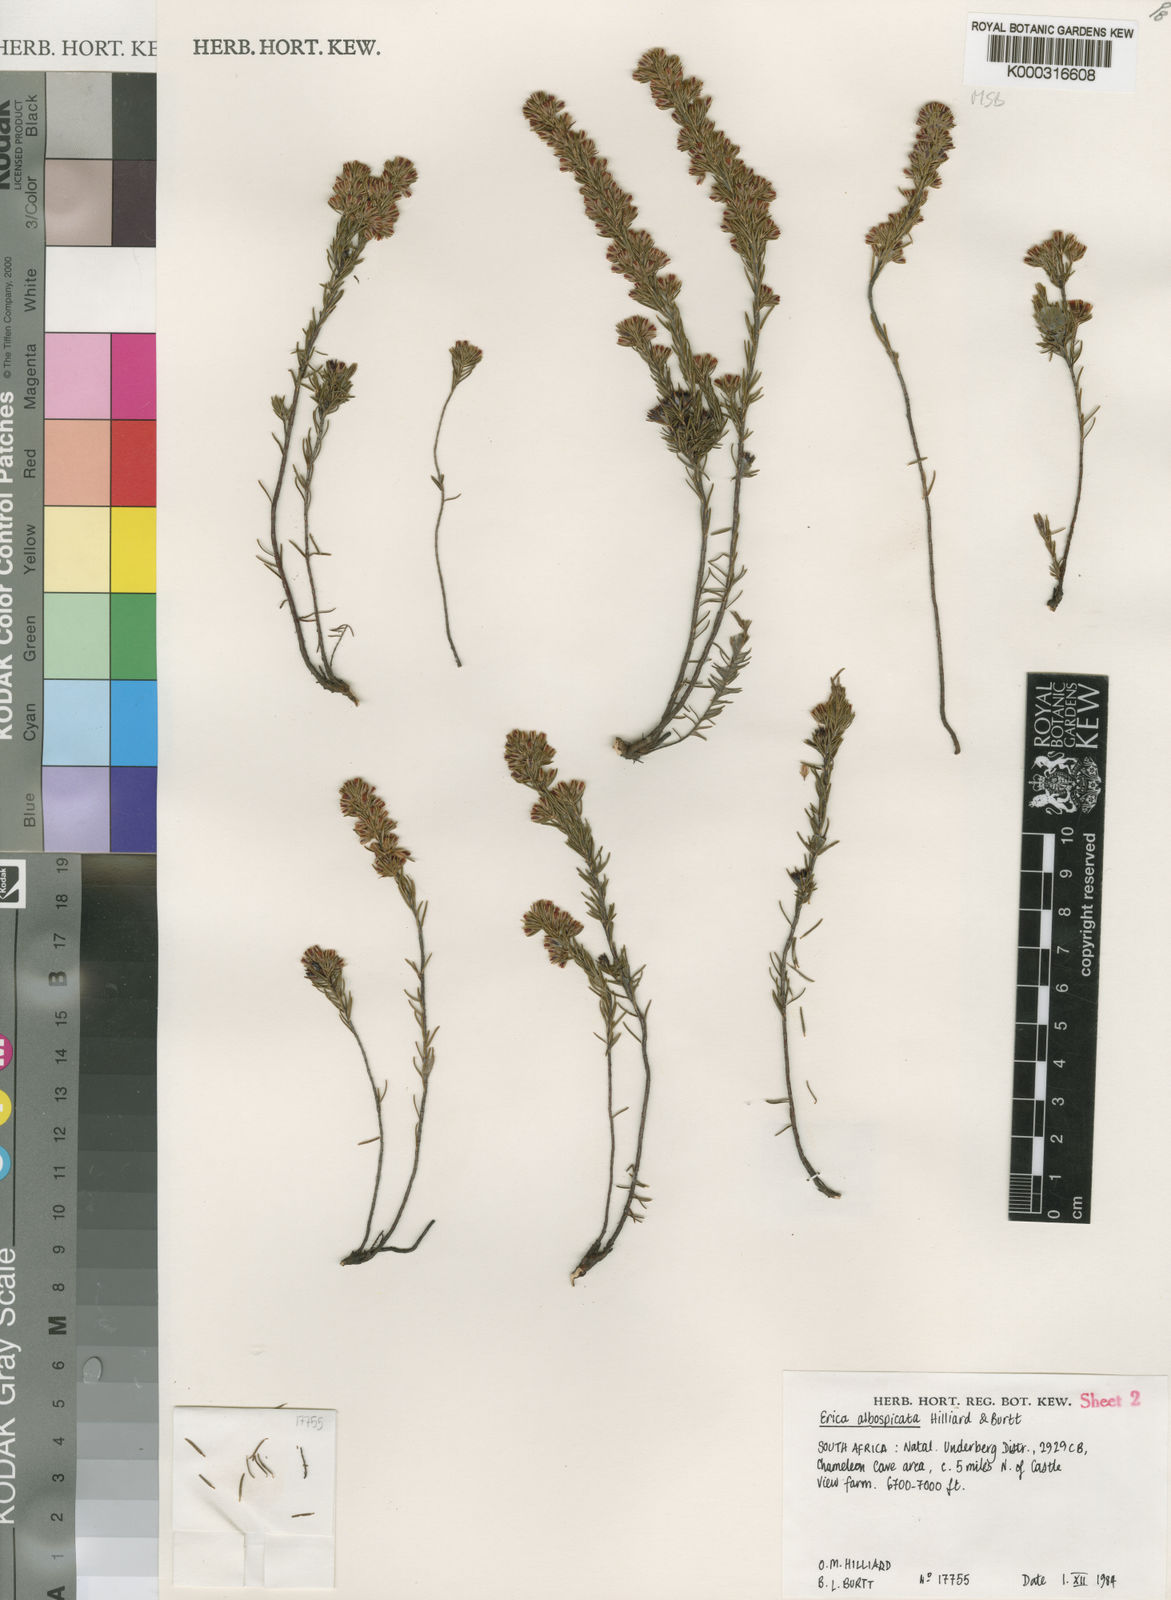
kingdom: Plantae
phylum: Tracheophyta
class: Magnoliopsida
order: Ericales
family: Ericaceae
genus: Erica
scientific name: Erica albospicata
